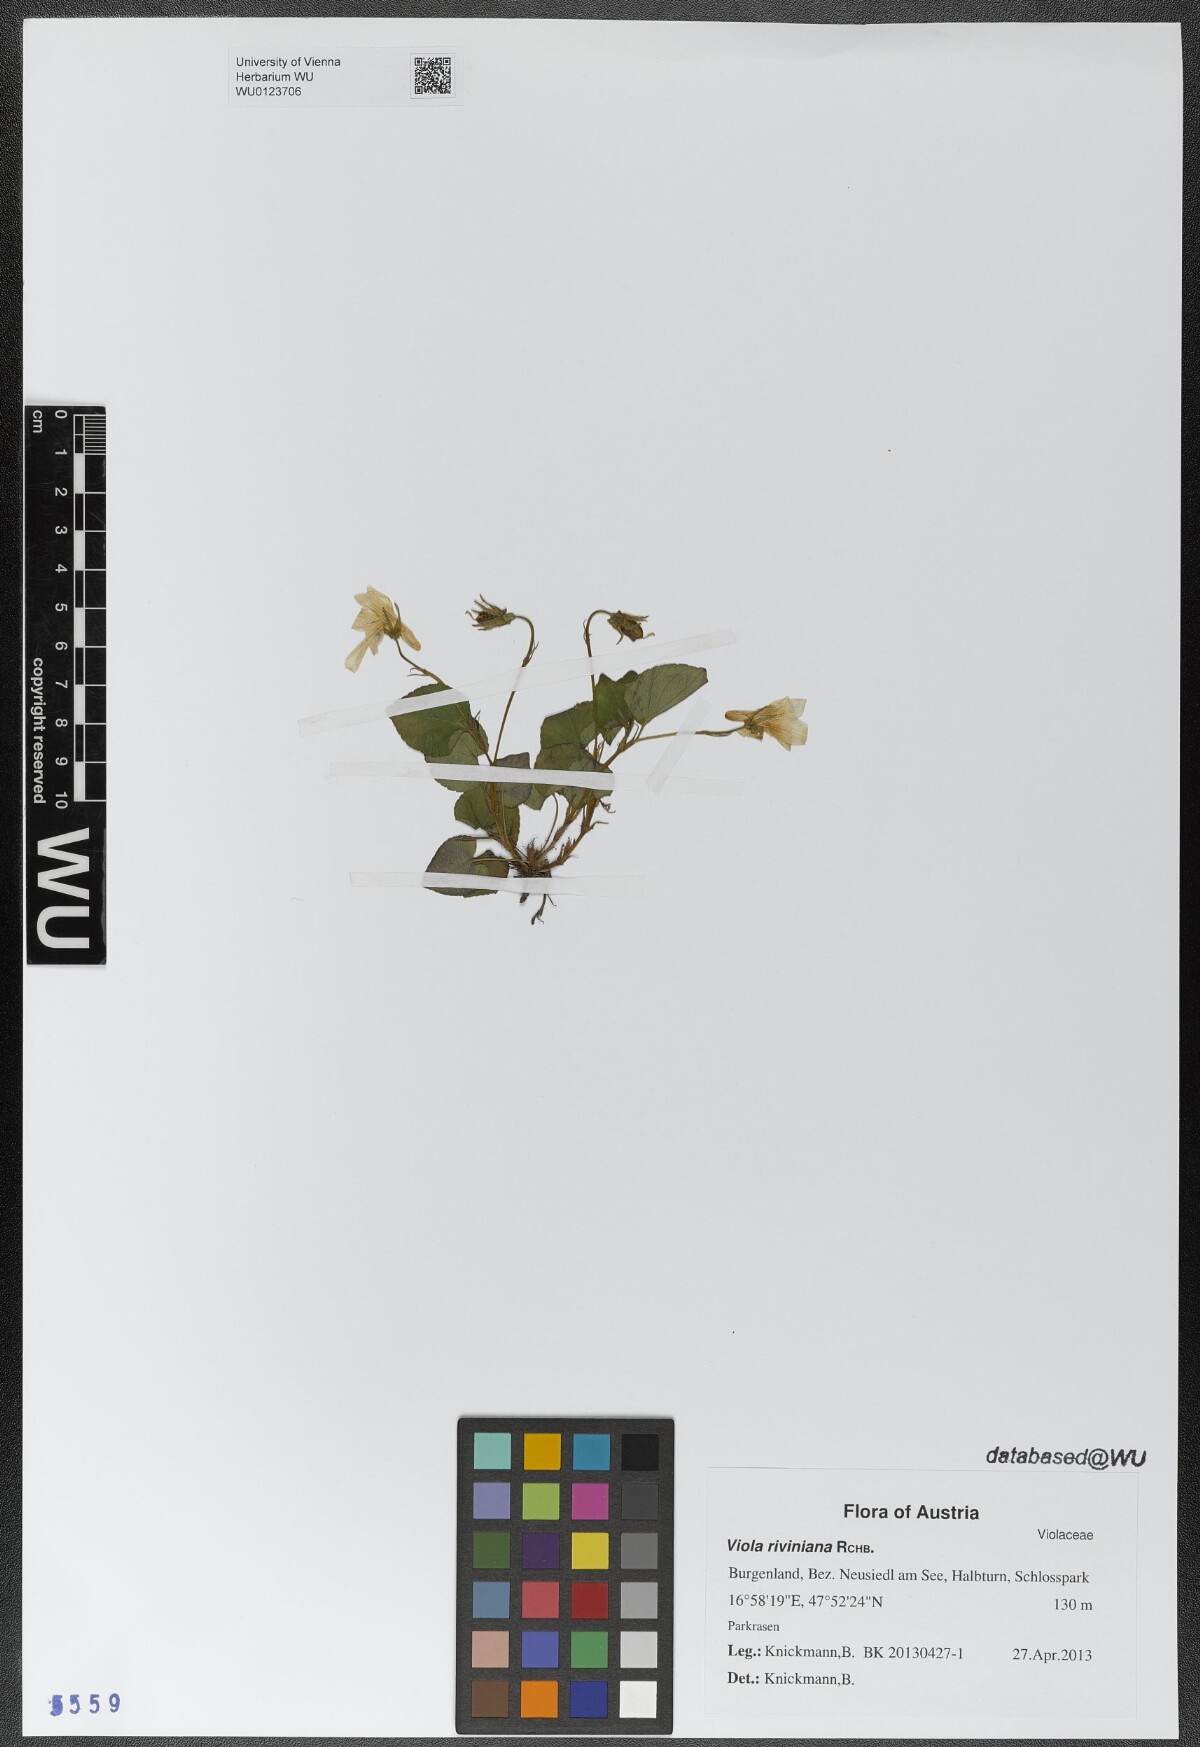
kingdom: Plantae
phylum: Tracheophyta
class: Magnoliopsida
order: Malpighiales
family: Violaceae
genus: Viola
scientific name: Viola riviniana
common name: Common dog-violet
